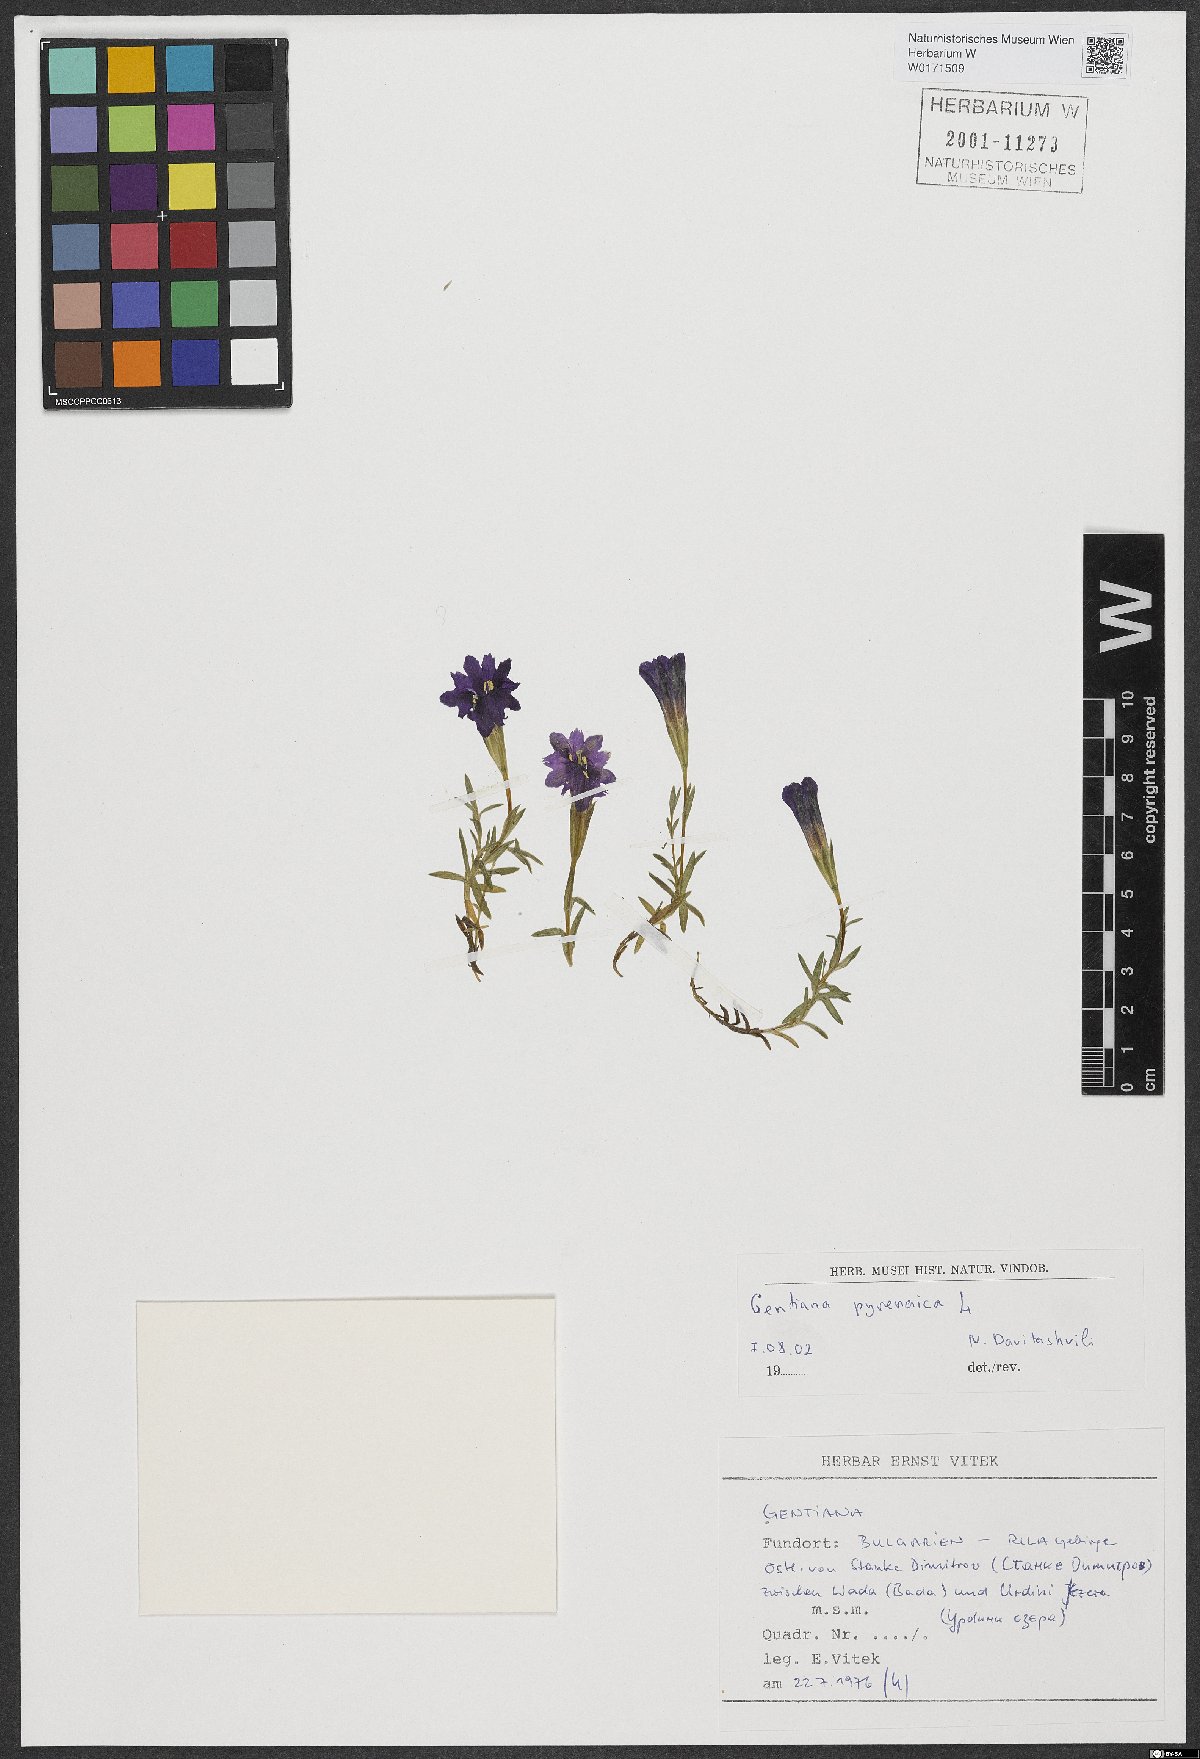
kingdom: Plantae
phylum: Tracheophyta
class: Magnoliopsida
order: Gentianales
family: Gentianaceae
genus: Gentiana
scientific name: Gentiana pyrenaica
